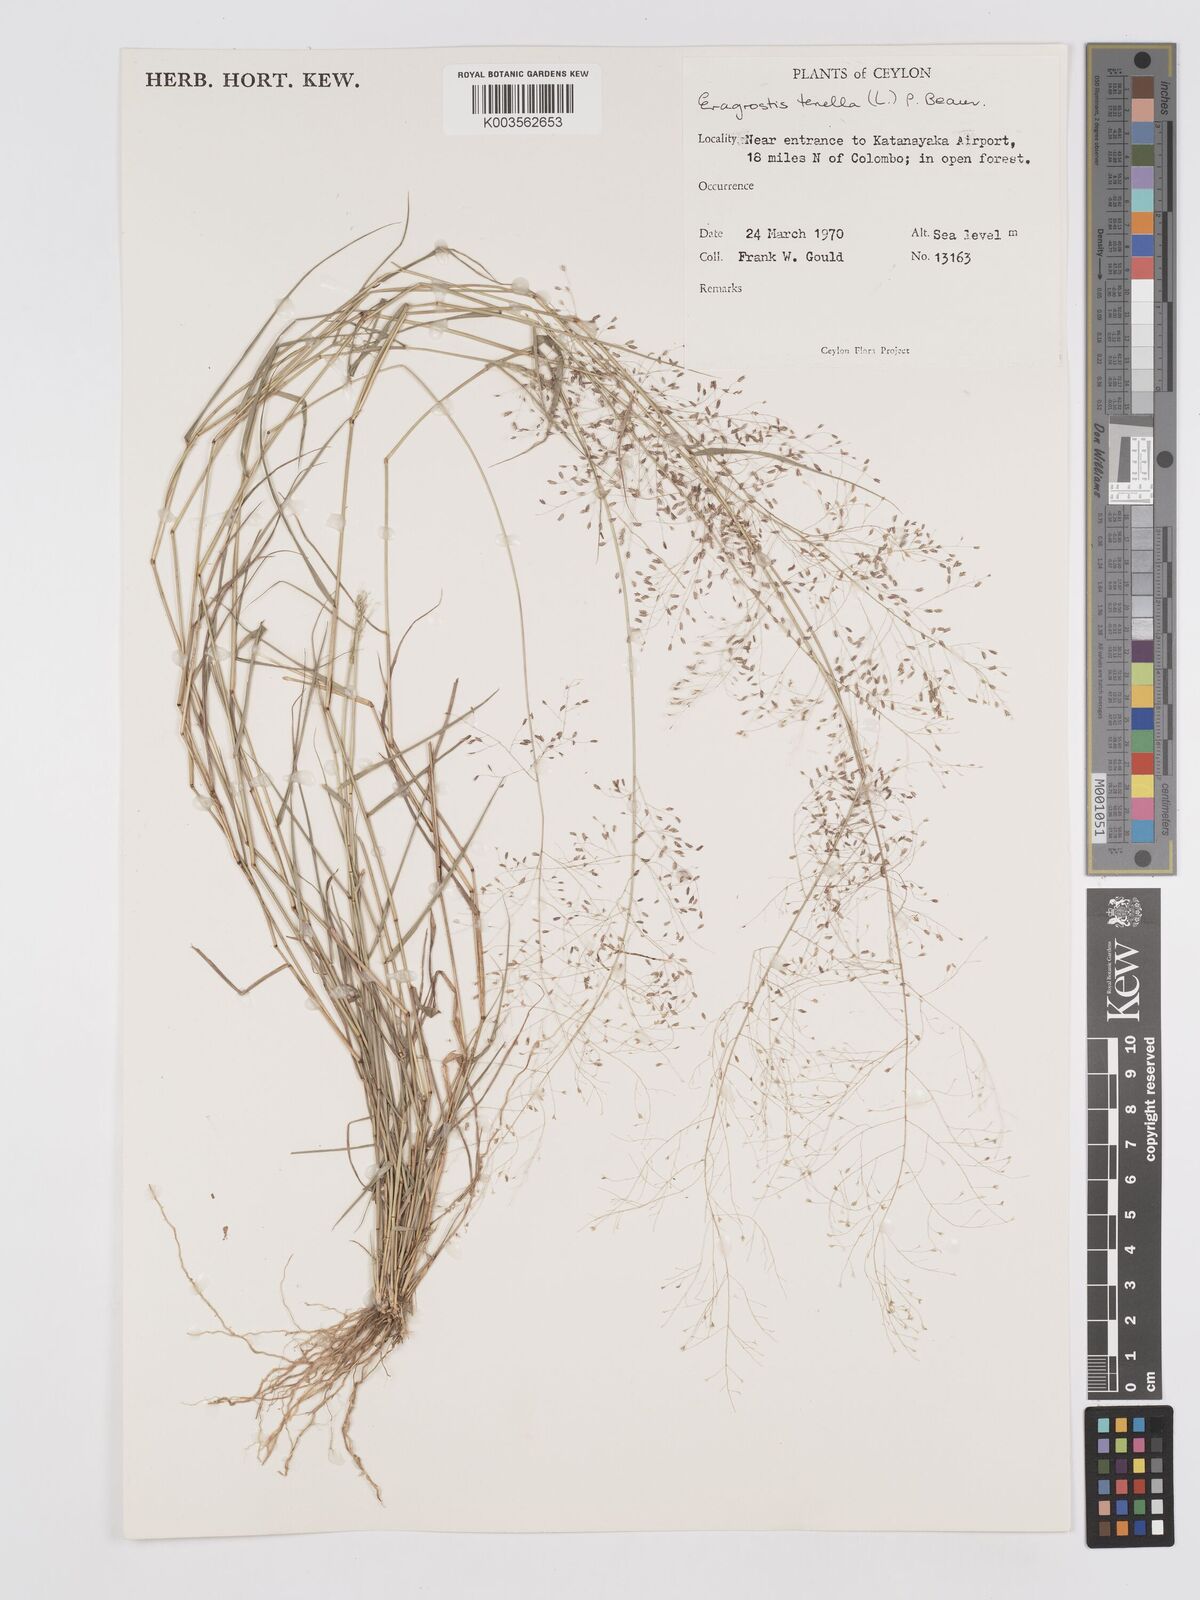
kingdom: Plantae
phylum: Tracheophyta
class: Liliopsida
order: Poales
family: Poaceae
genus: Eragrostis
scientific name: Eragrostis tenella
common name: Japanese lovegrass
